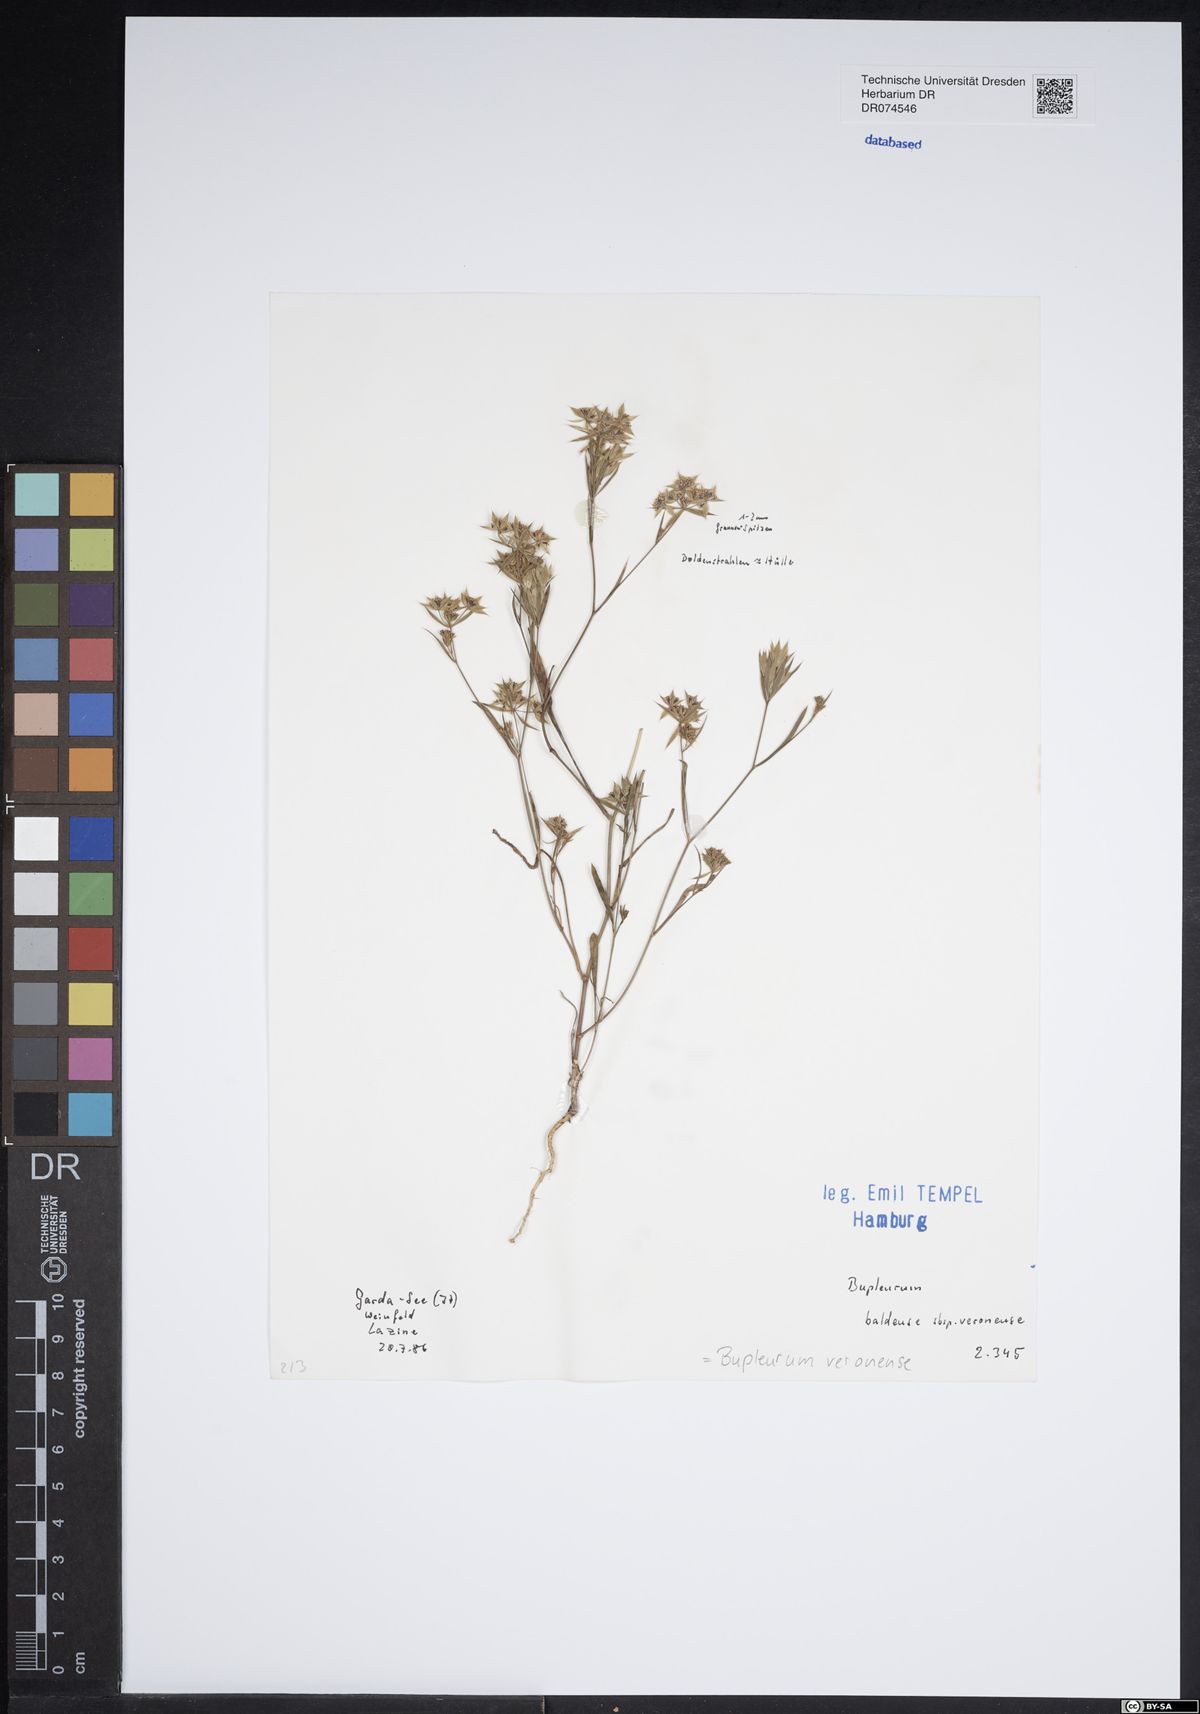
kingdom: Plantae
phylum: Tracheophyta
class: Magnoliopsida
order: Apiales
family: Apiaceae
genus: Bupleurum
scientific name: Bupleurum veronense
